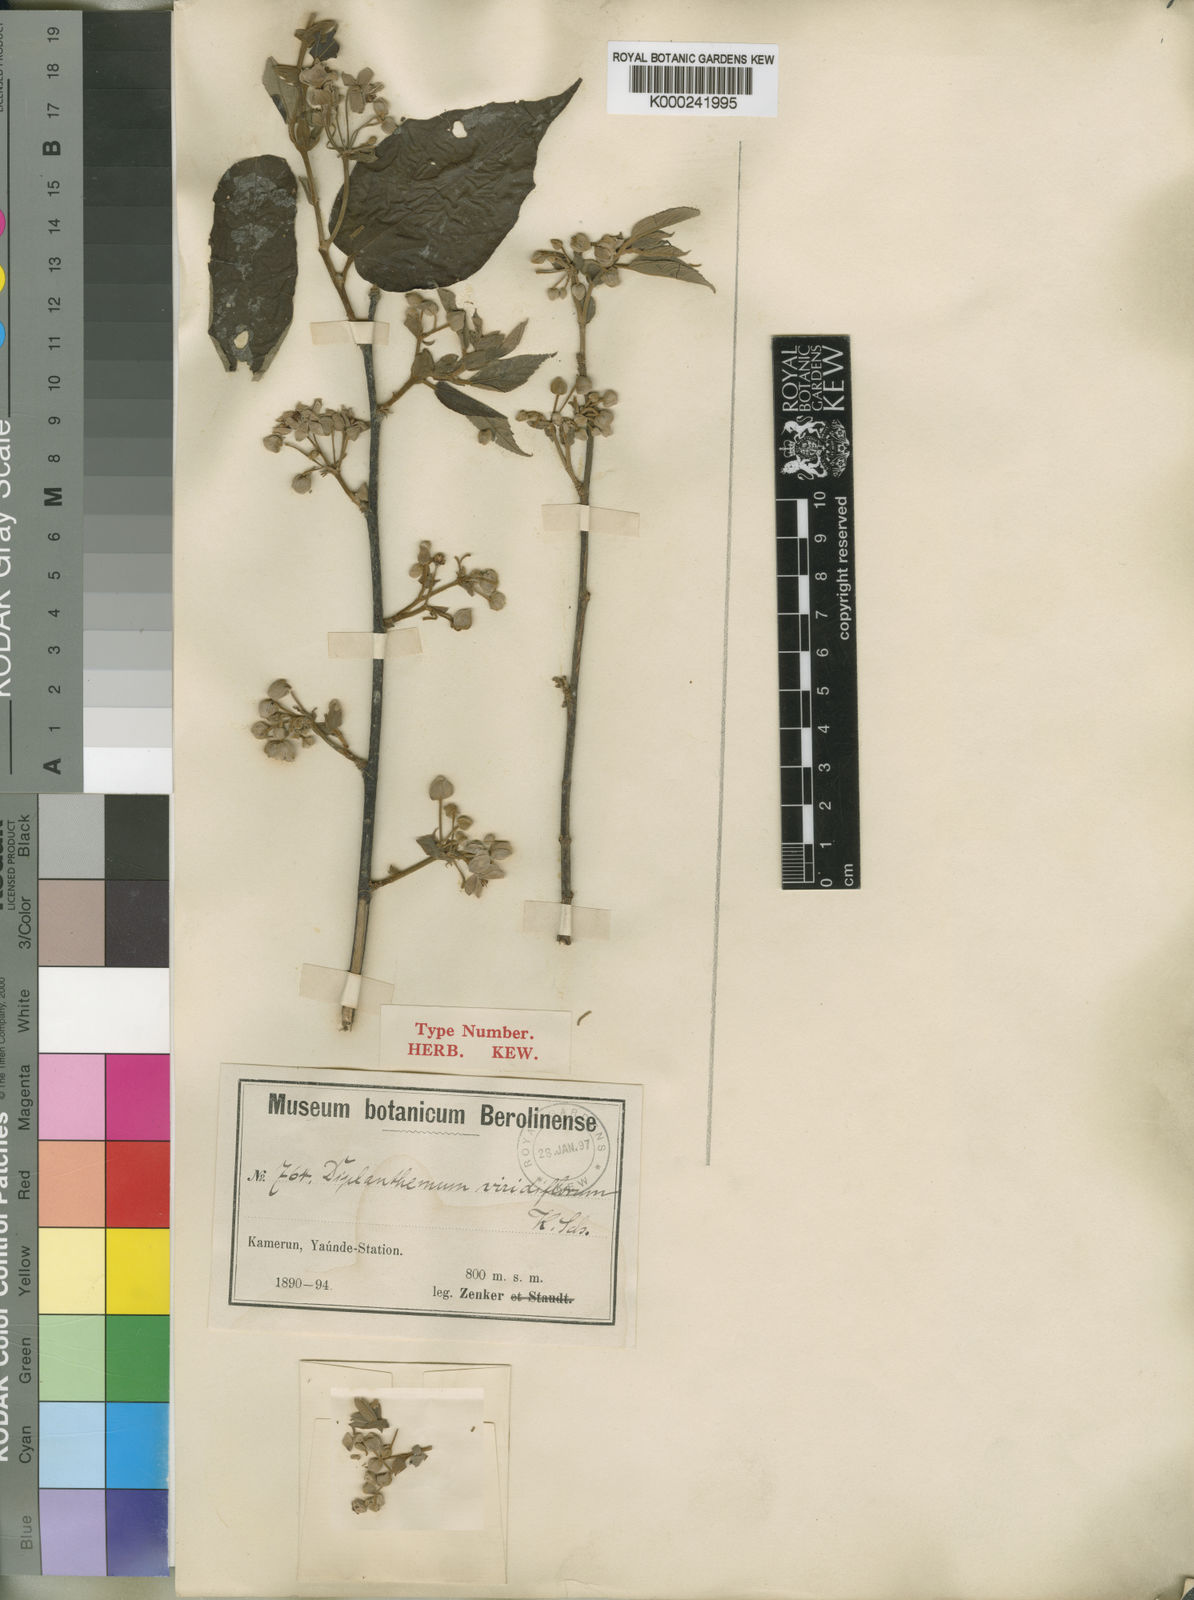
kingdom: Plantae
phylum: Tracheophyta
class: Magnoliopsida
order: Malvales
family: Malvaceae
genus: Duboscia
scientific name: Duboscia viridiflora
